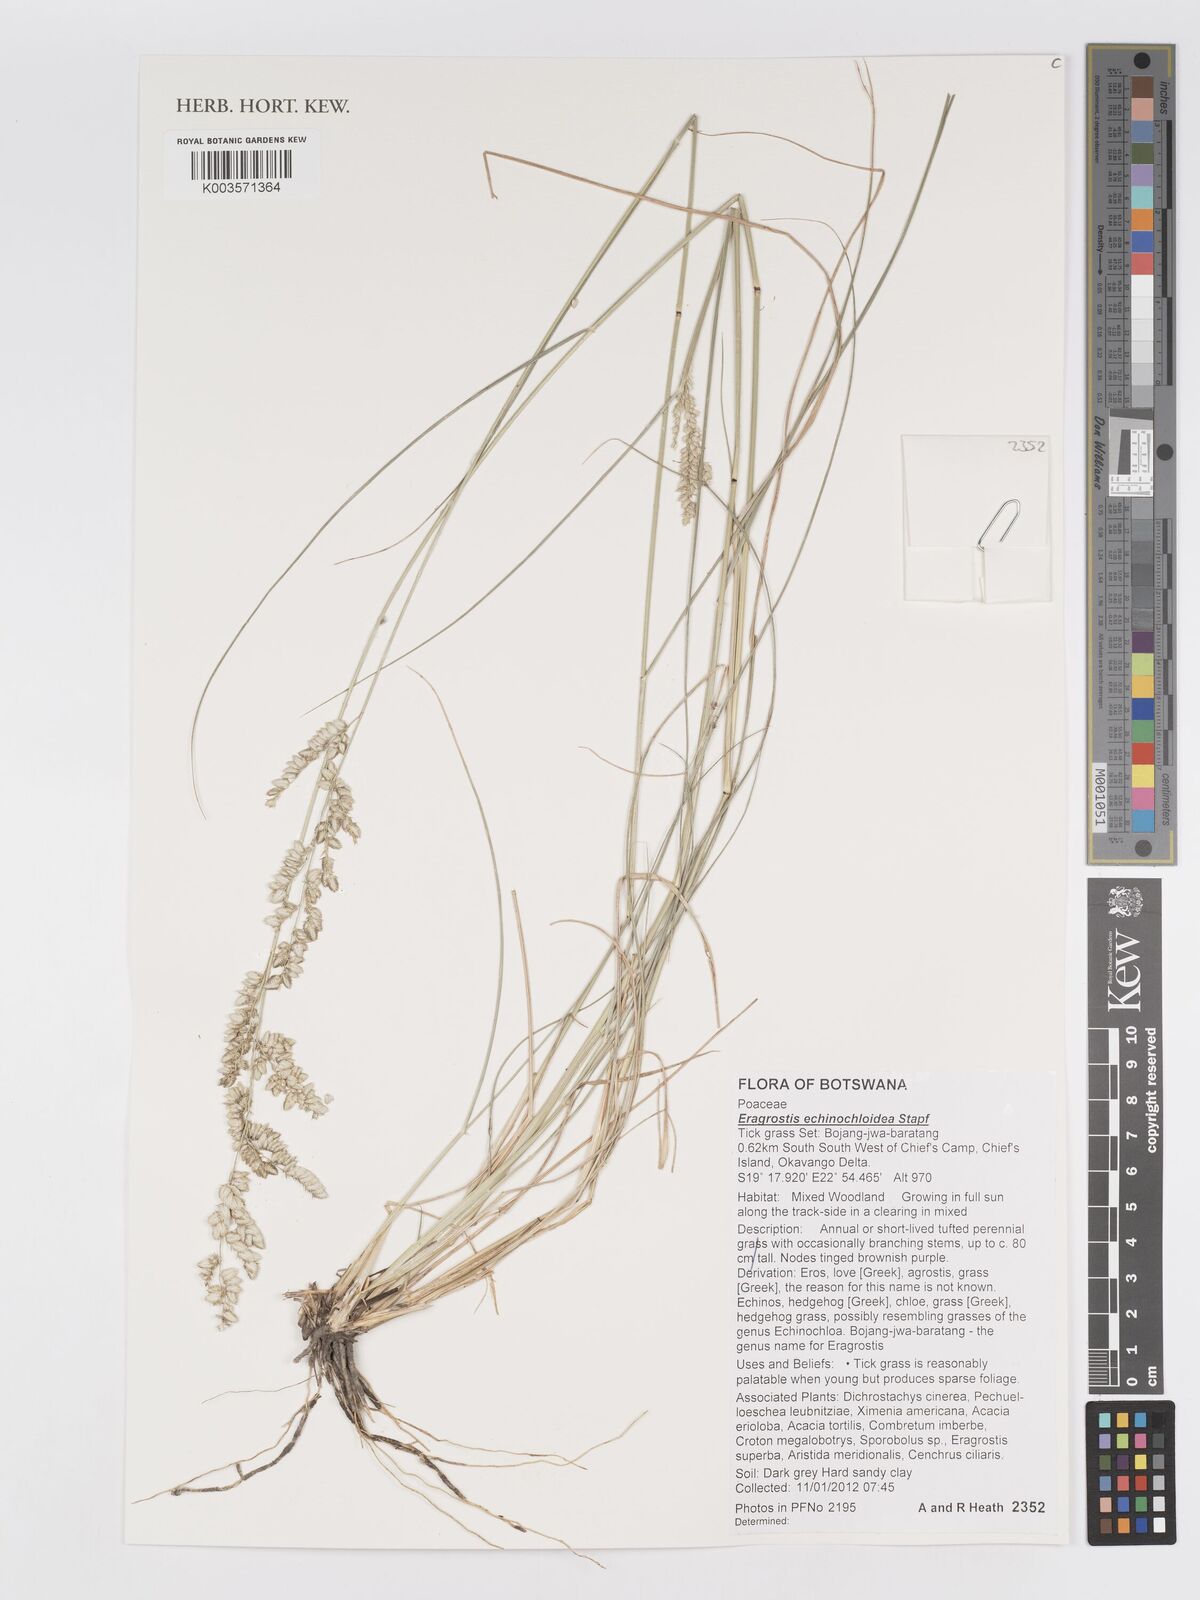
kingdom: Plantae
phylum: Tracheophyta
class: Liliopsida
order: Poales
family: Poaceae
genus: Eragrostis
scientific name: Eragrostis echinochloidea
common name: African lovegrass
